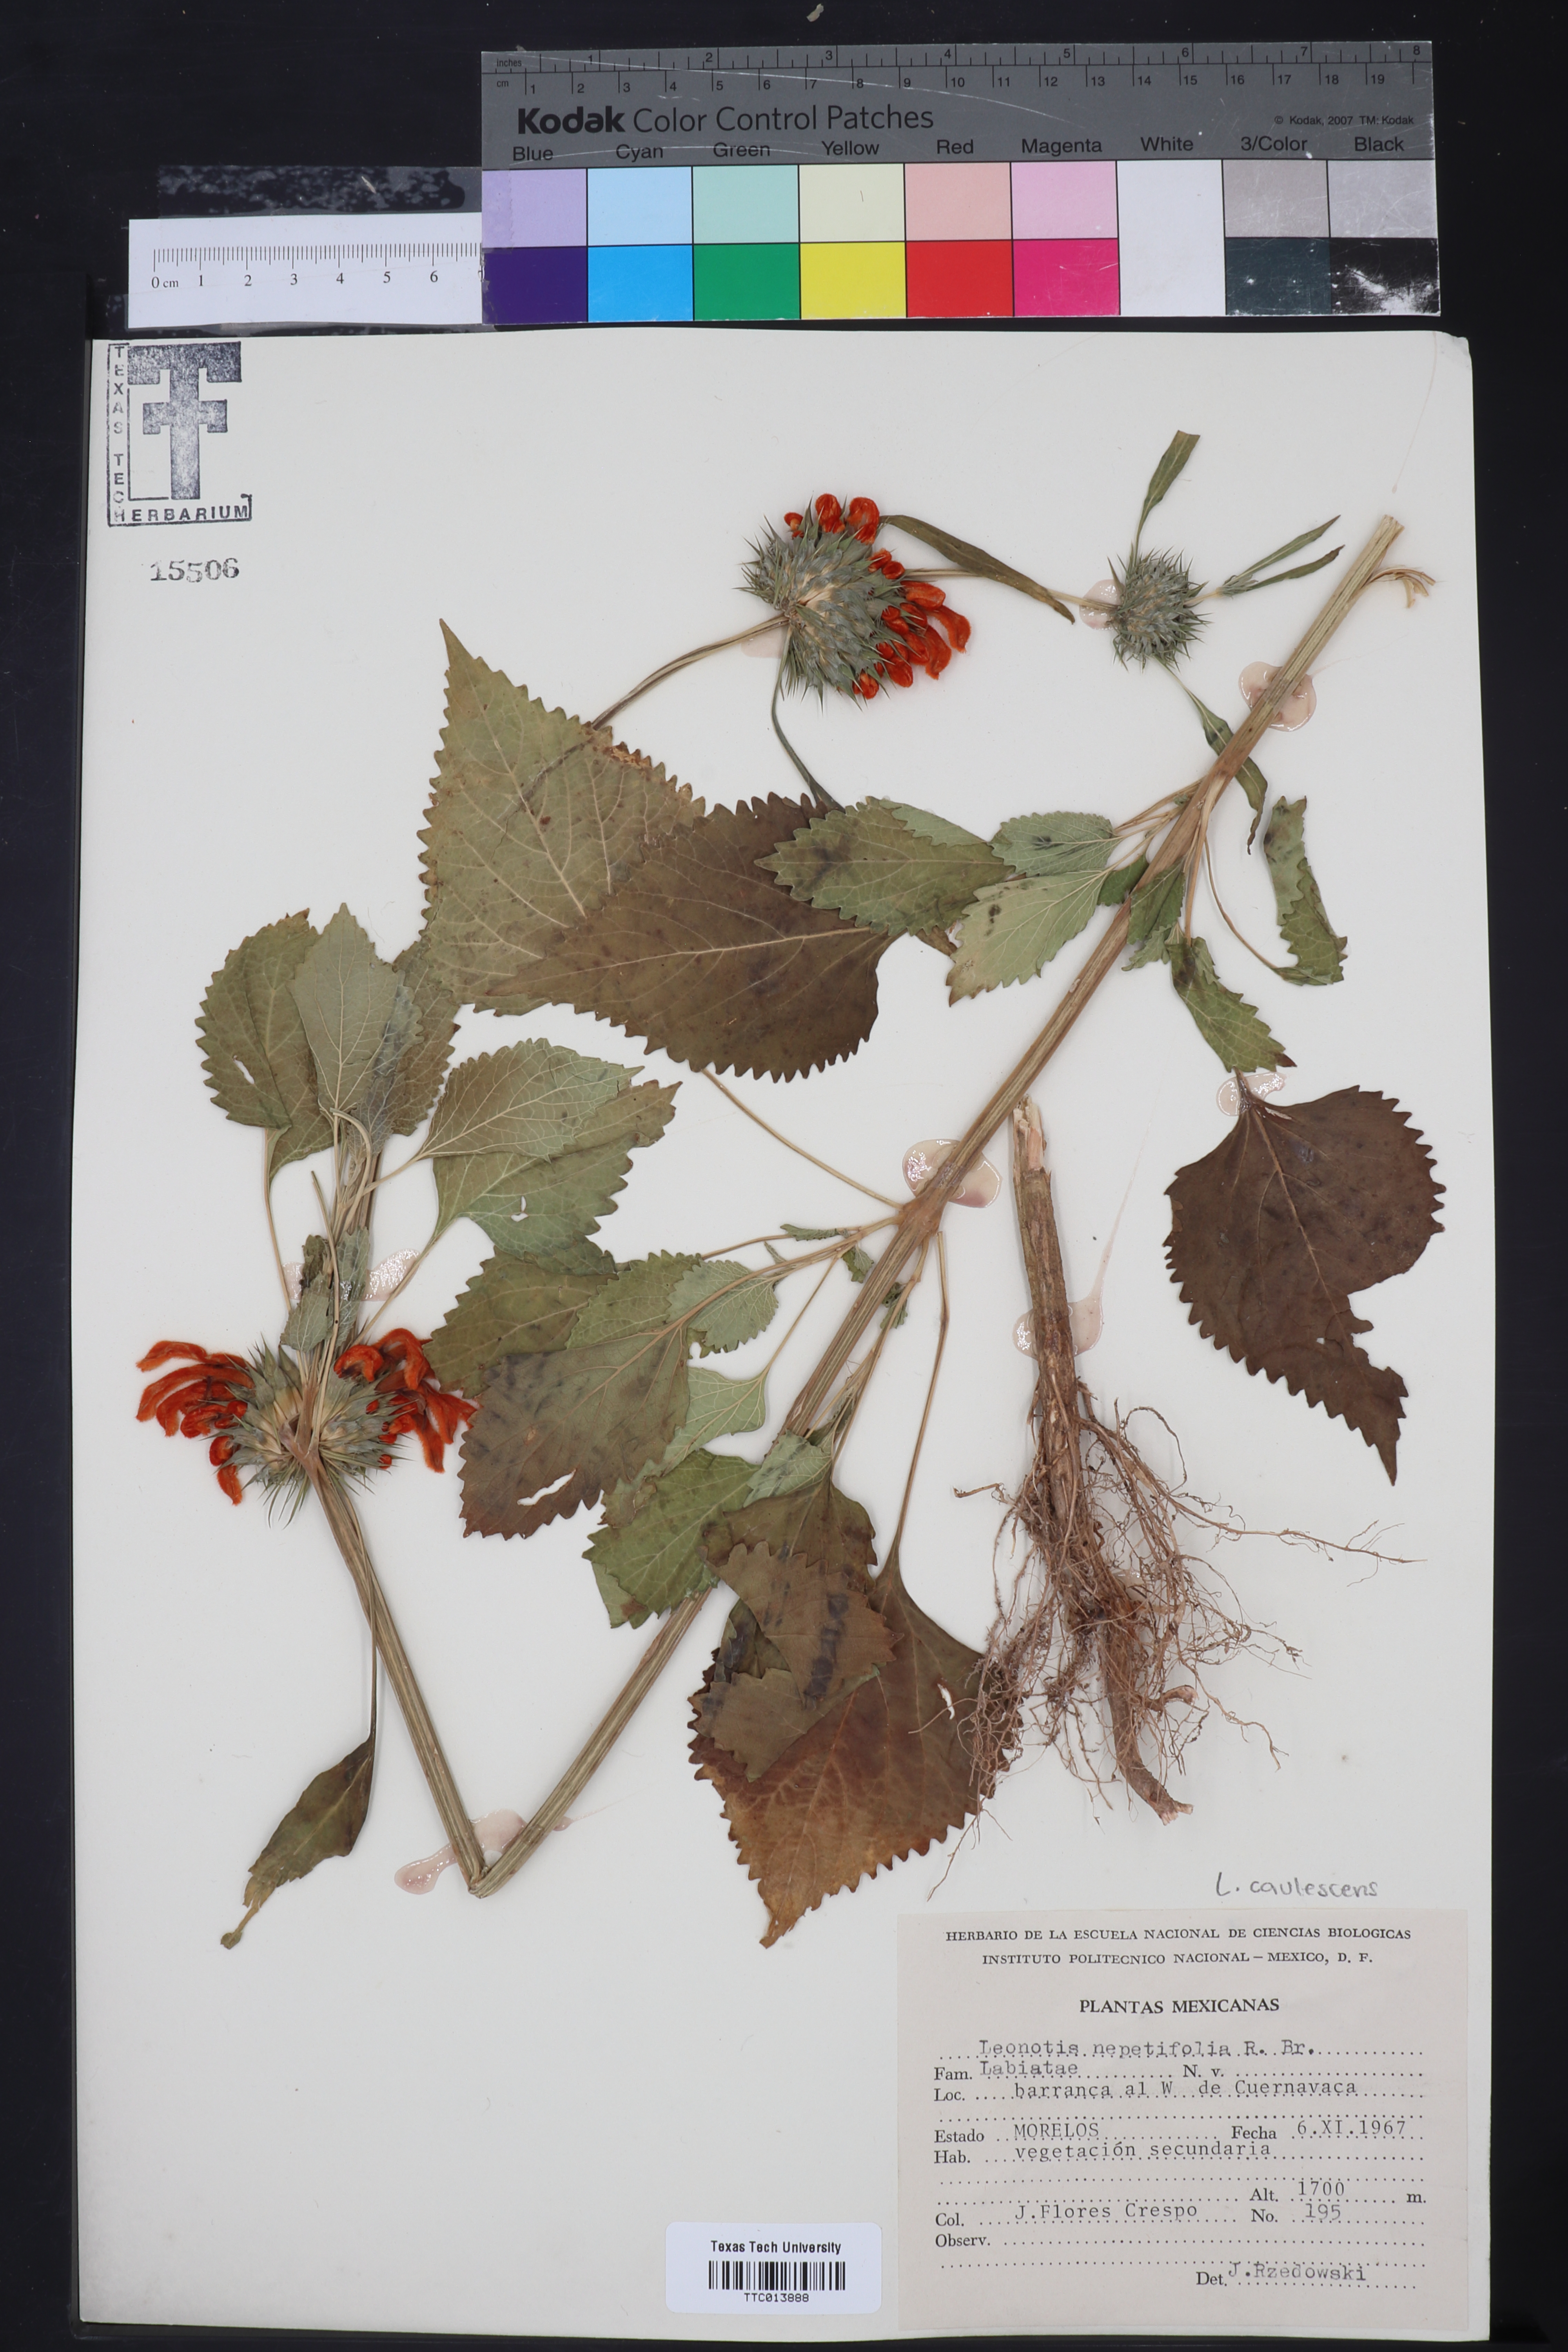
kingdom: Plantae
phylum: Tracheophyta
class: Magnoliopsida
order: Lamiales
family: Lamiaceae
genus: Leonotis
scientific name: Leonotis nepetifolia
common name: Christmas candlestick
